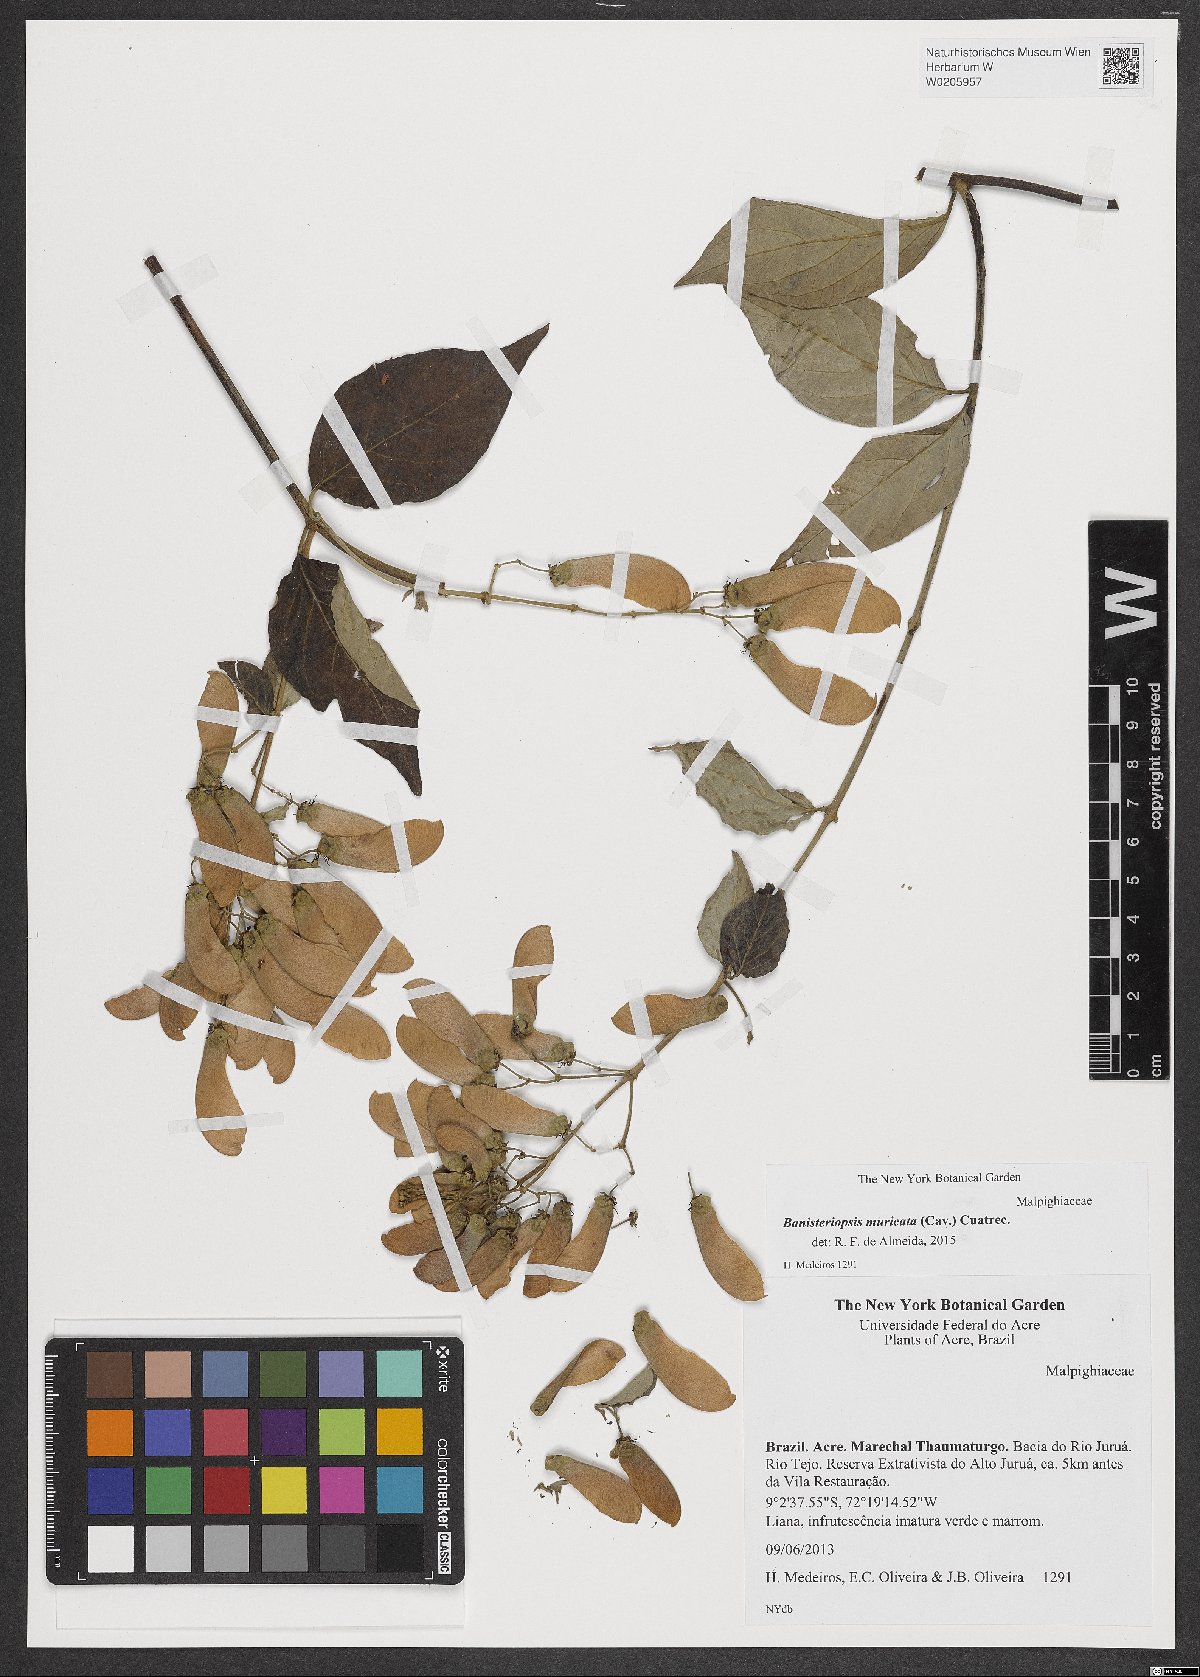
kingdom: Plantae
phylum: Tracheophyta
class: Magnoliopsida
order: Malpighiales
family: Malpighiaceae
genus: Banisteriopsis
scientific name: Banisteriopsis muricata
